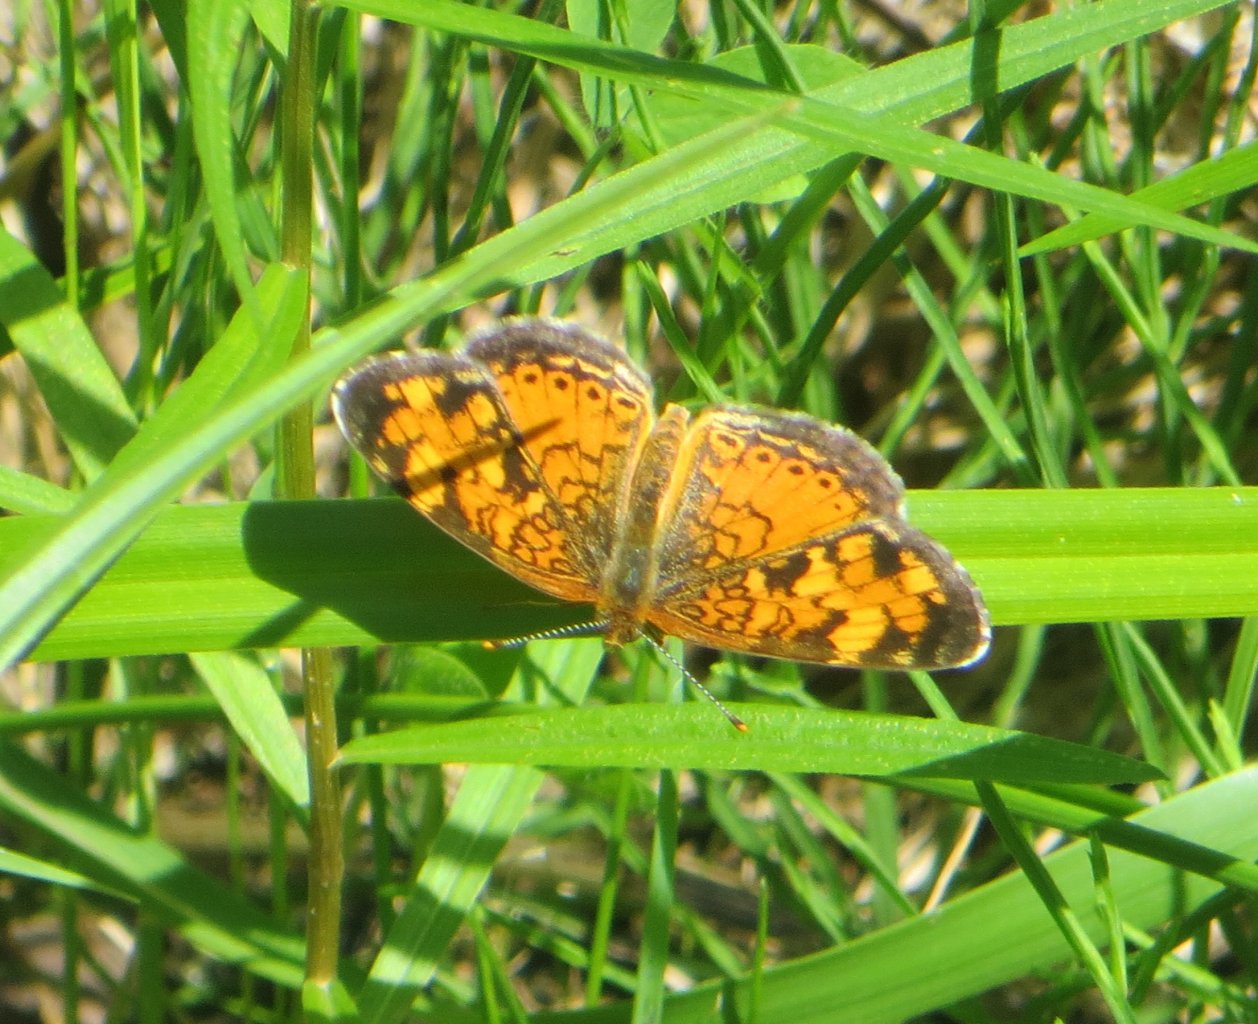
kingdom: Animalia
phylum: Arthropoda
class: Insecta
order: Lepidoptera
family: Nymphalidae
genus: Phyciodes
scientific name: Phyciodes tharos
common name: Northern Crescent
